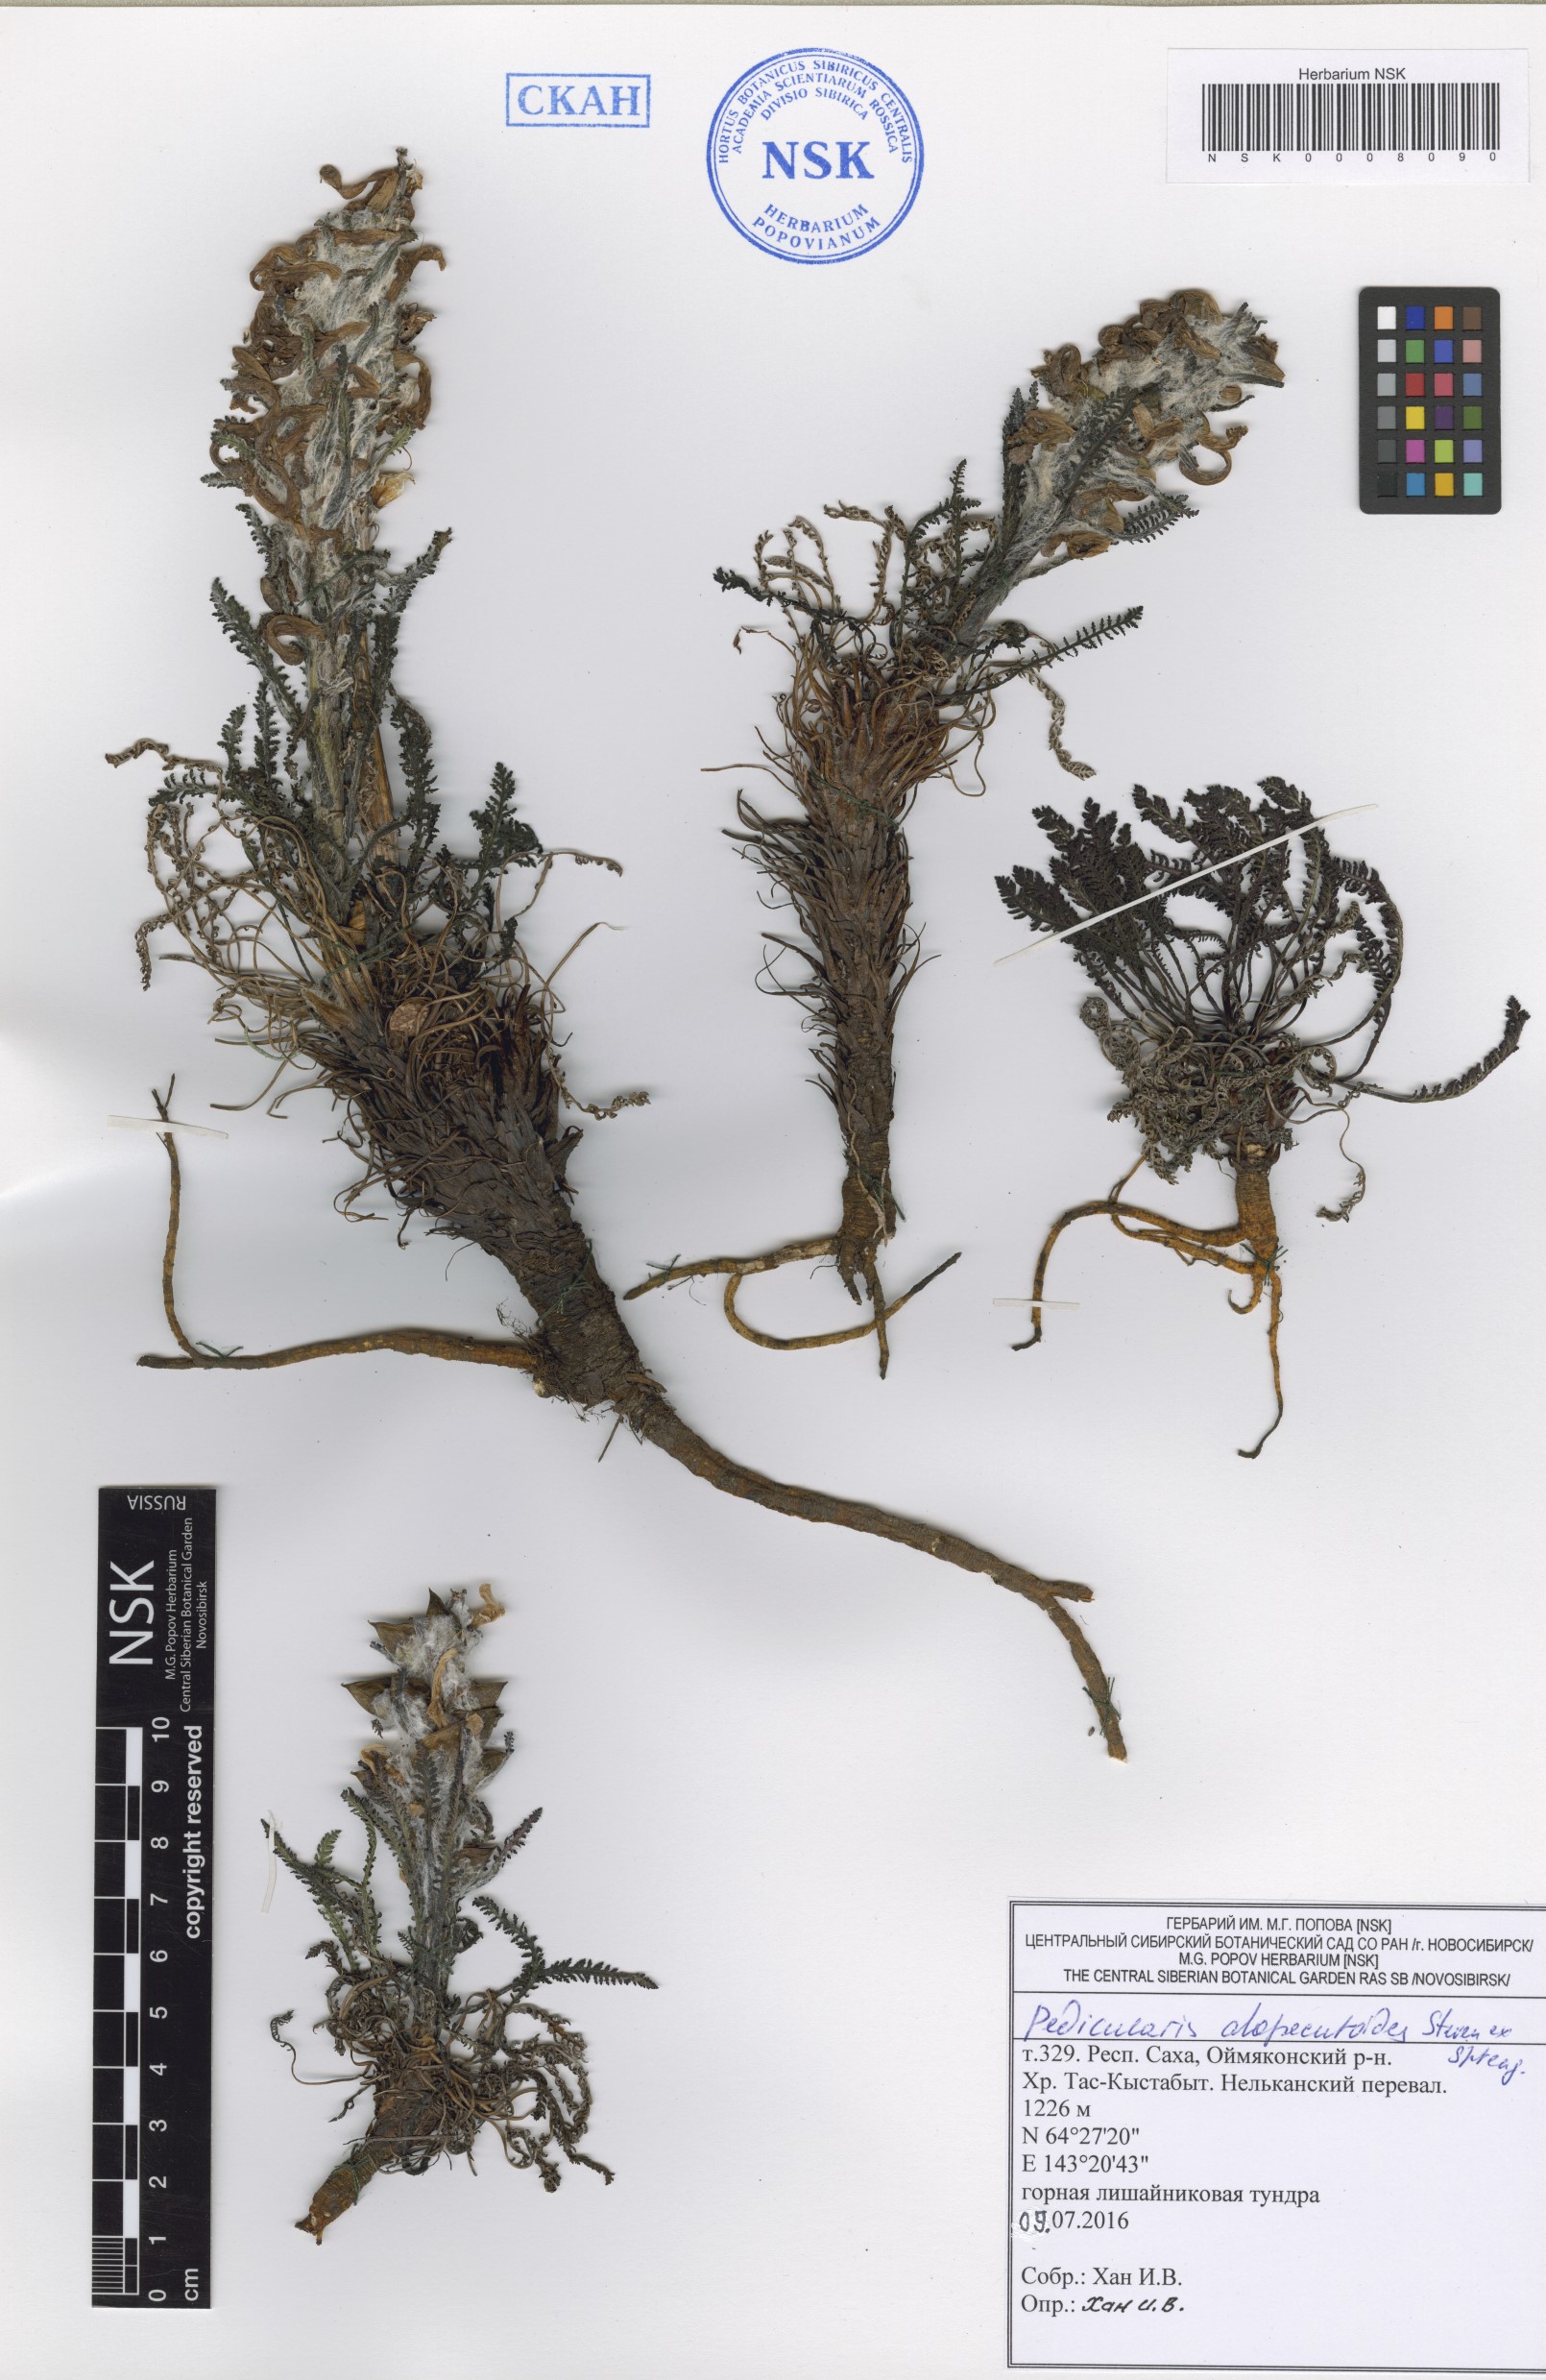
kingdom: Plantae
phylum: Tracheophyta
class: Magnoliopsida
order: Lamiales
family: Orobanchaceae
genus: Pedicularis
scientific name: Pedicularis alopecuroides
